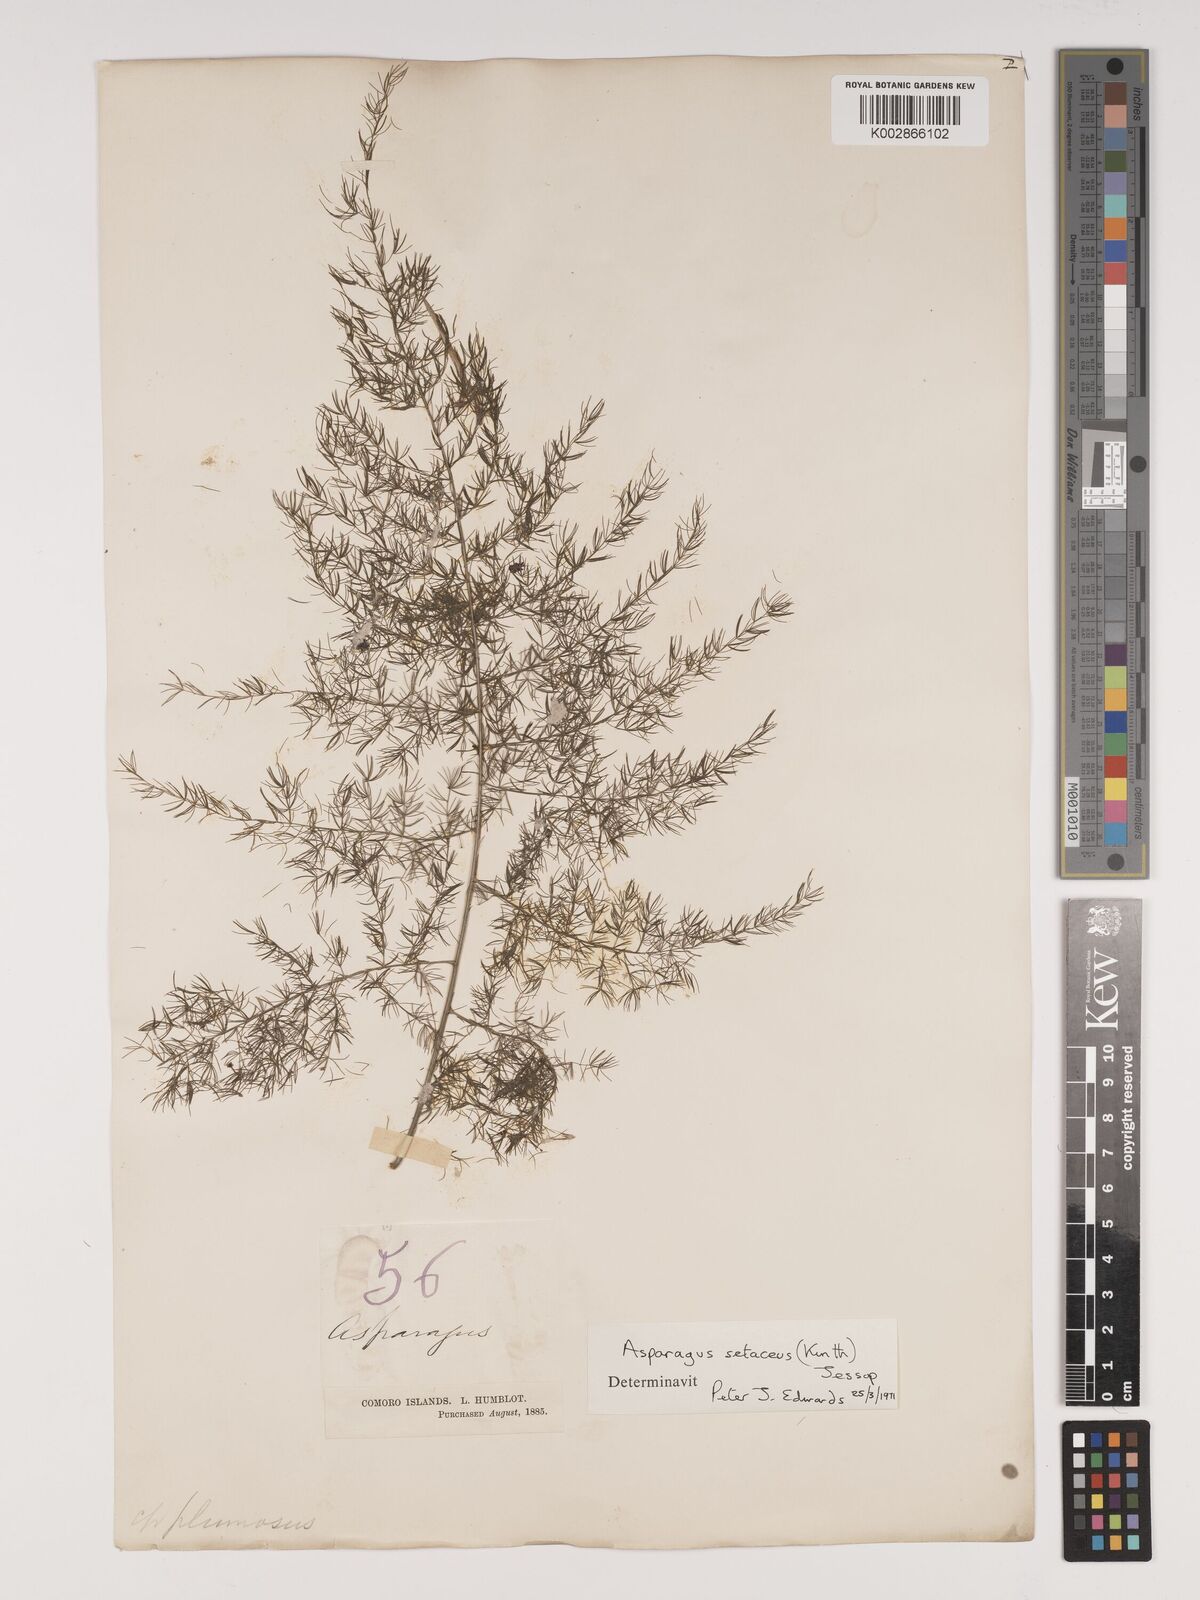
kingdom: Plantae
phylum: Tracheophyta
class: Liliopsida
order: Asparagales
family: Asparagaceae
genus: Asparagus
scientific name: Asparagus setaceus
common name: Common asparagus fern
